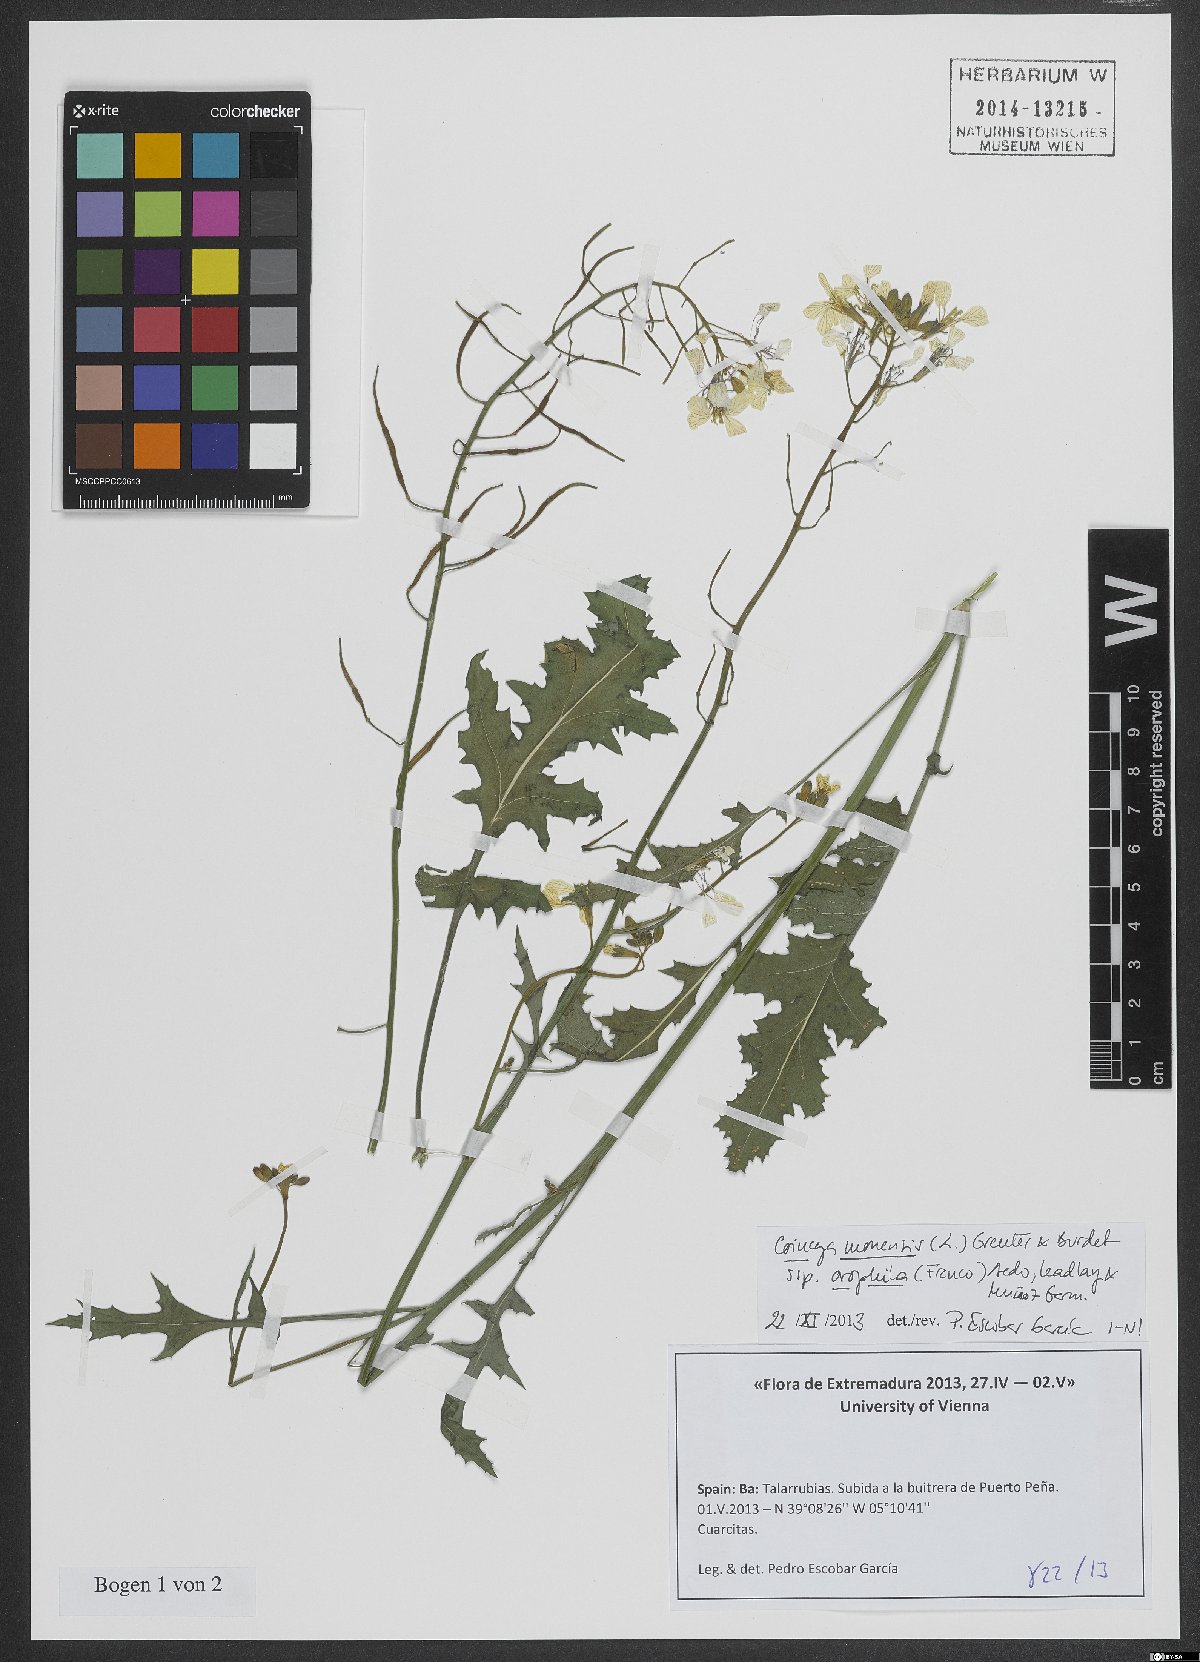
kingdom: Plantae
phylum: Tracheophyta
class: Magnoliopsida
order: Brassicales
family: Brassicaceae
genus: Coincya
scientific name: Coincya monensis
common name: Star-mustard
